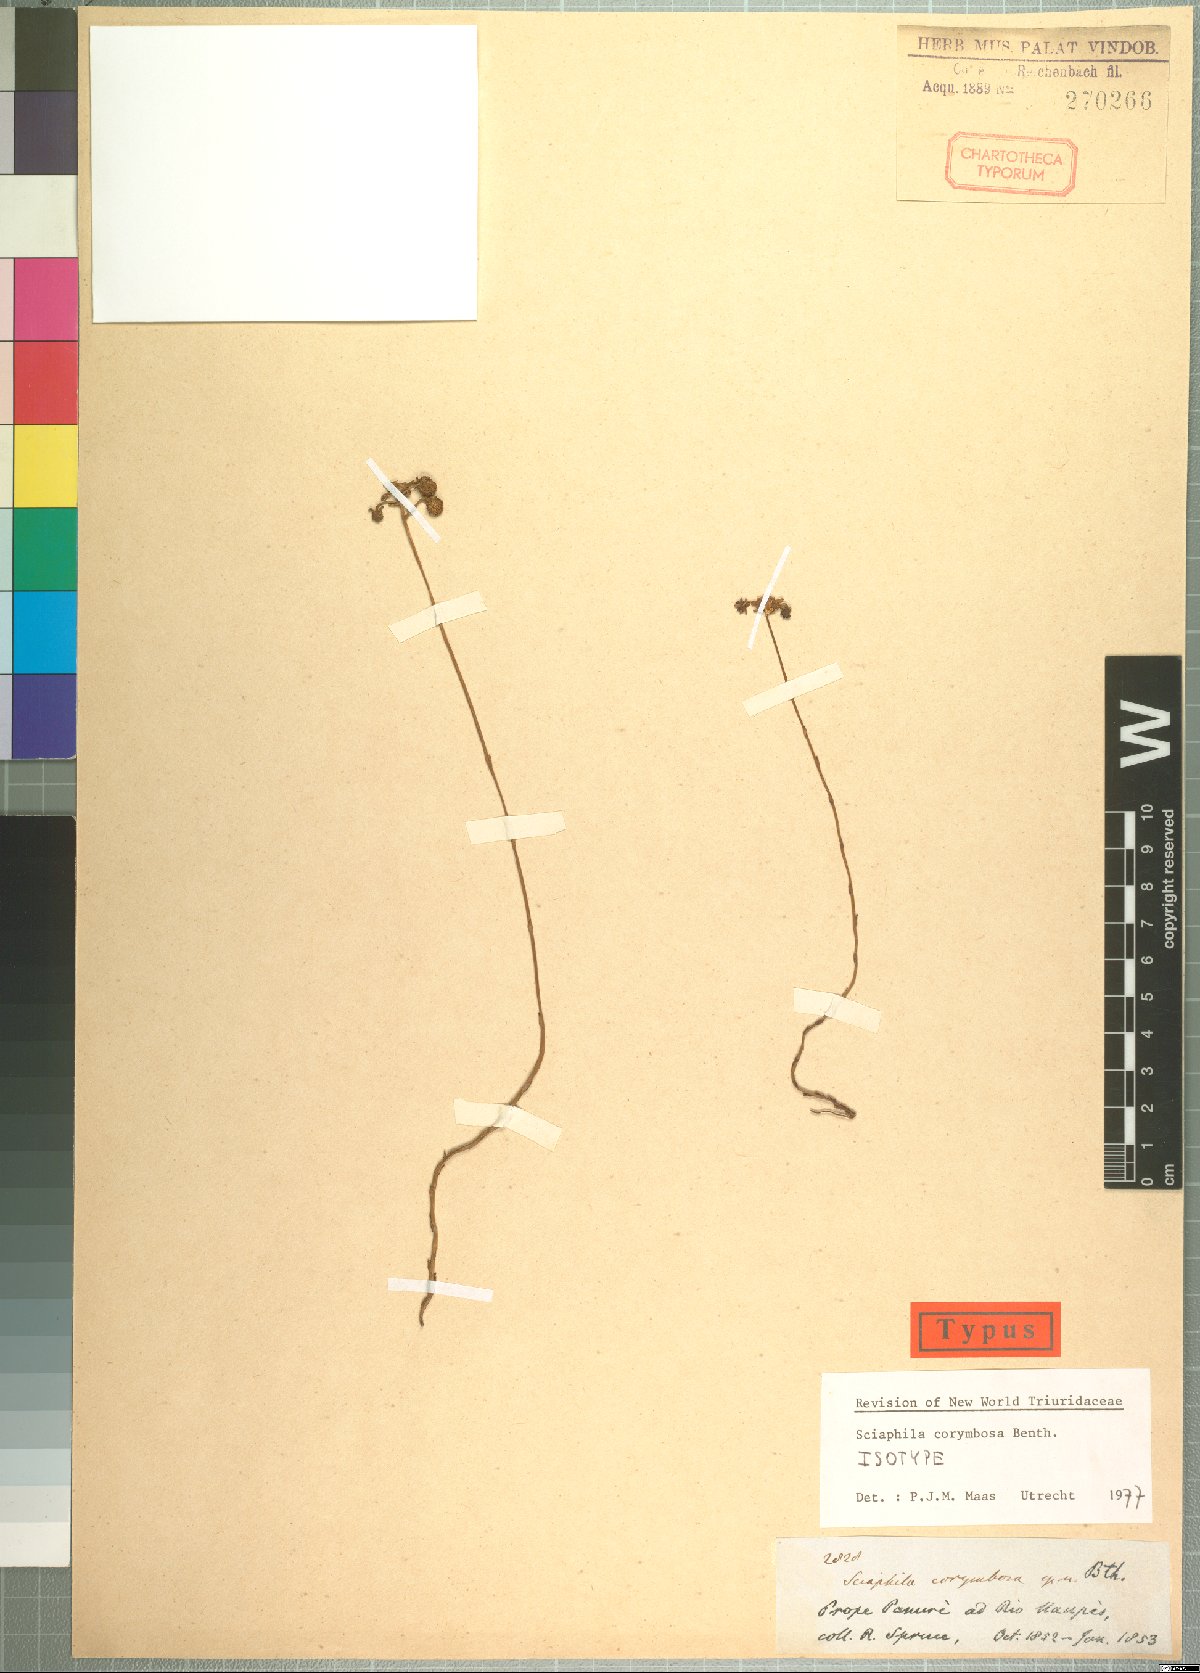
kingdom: Plantae
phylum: Tracheophyta
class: Liliopsida
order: Pandanales
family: Triuridaceae
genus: Sciaphila
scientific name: Sciaphila corymbosa
